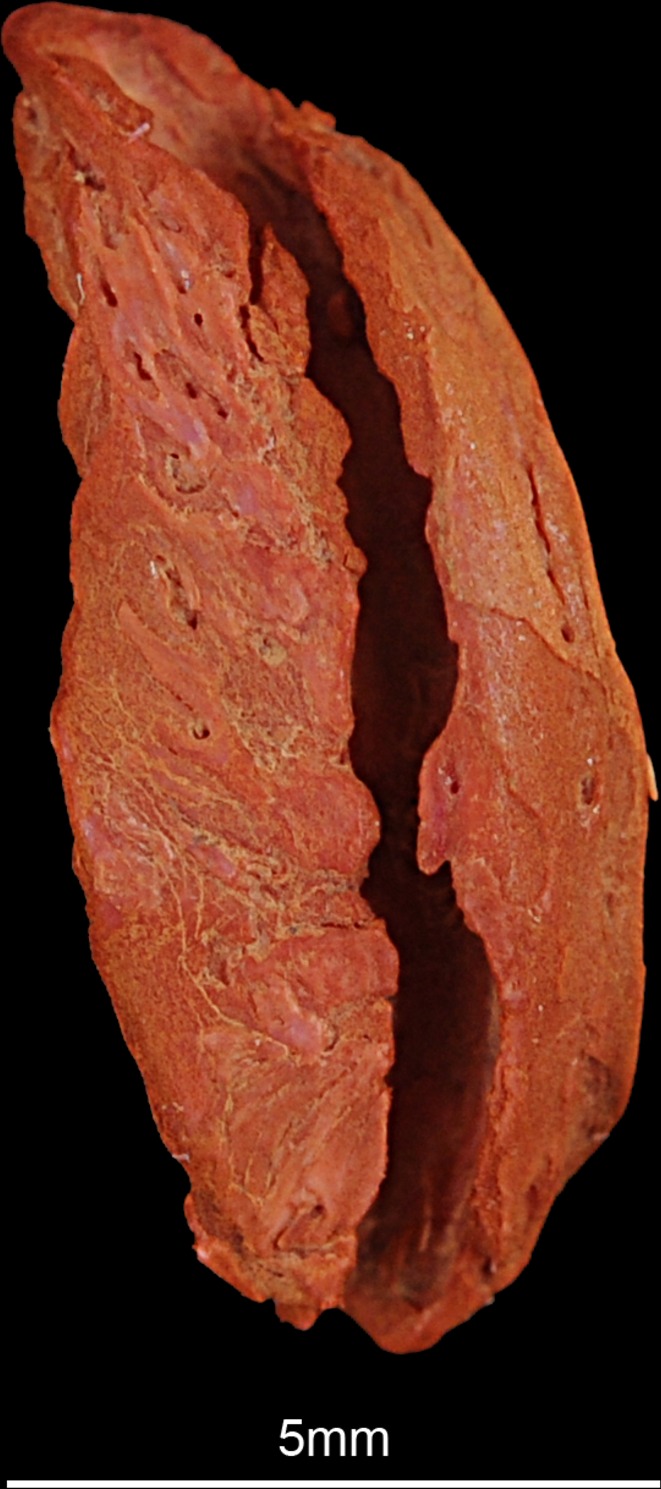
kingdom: Animalia
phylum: Chordata
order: Esociformes
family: Esocidae
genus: Esox
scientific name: Esox lucius
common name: Northern pike
